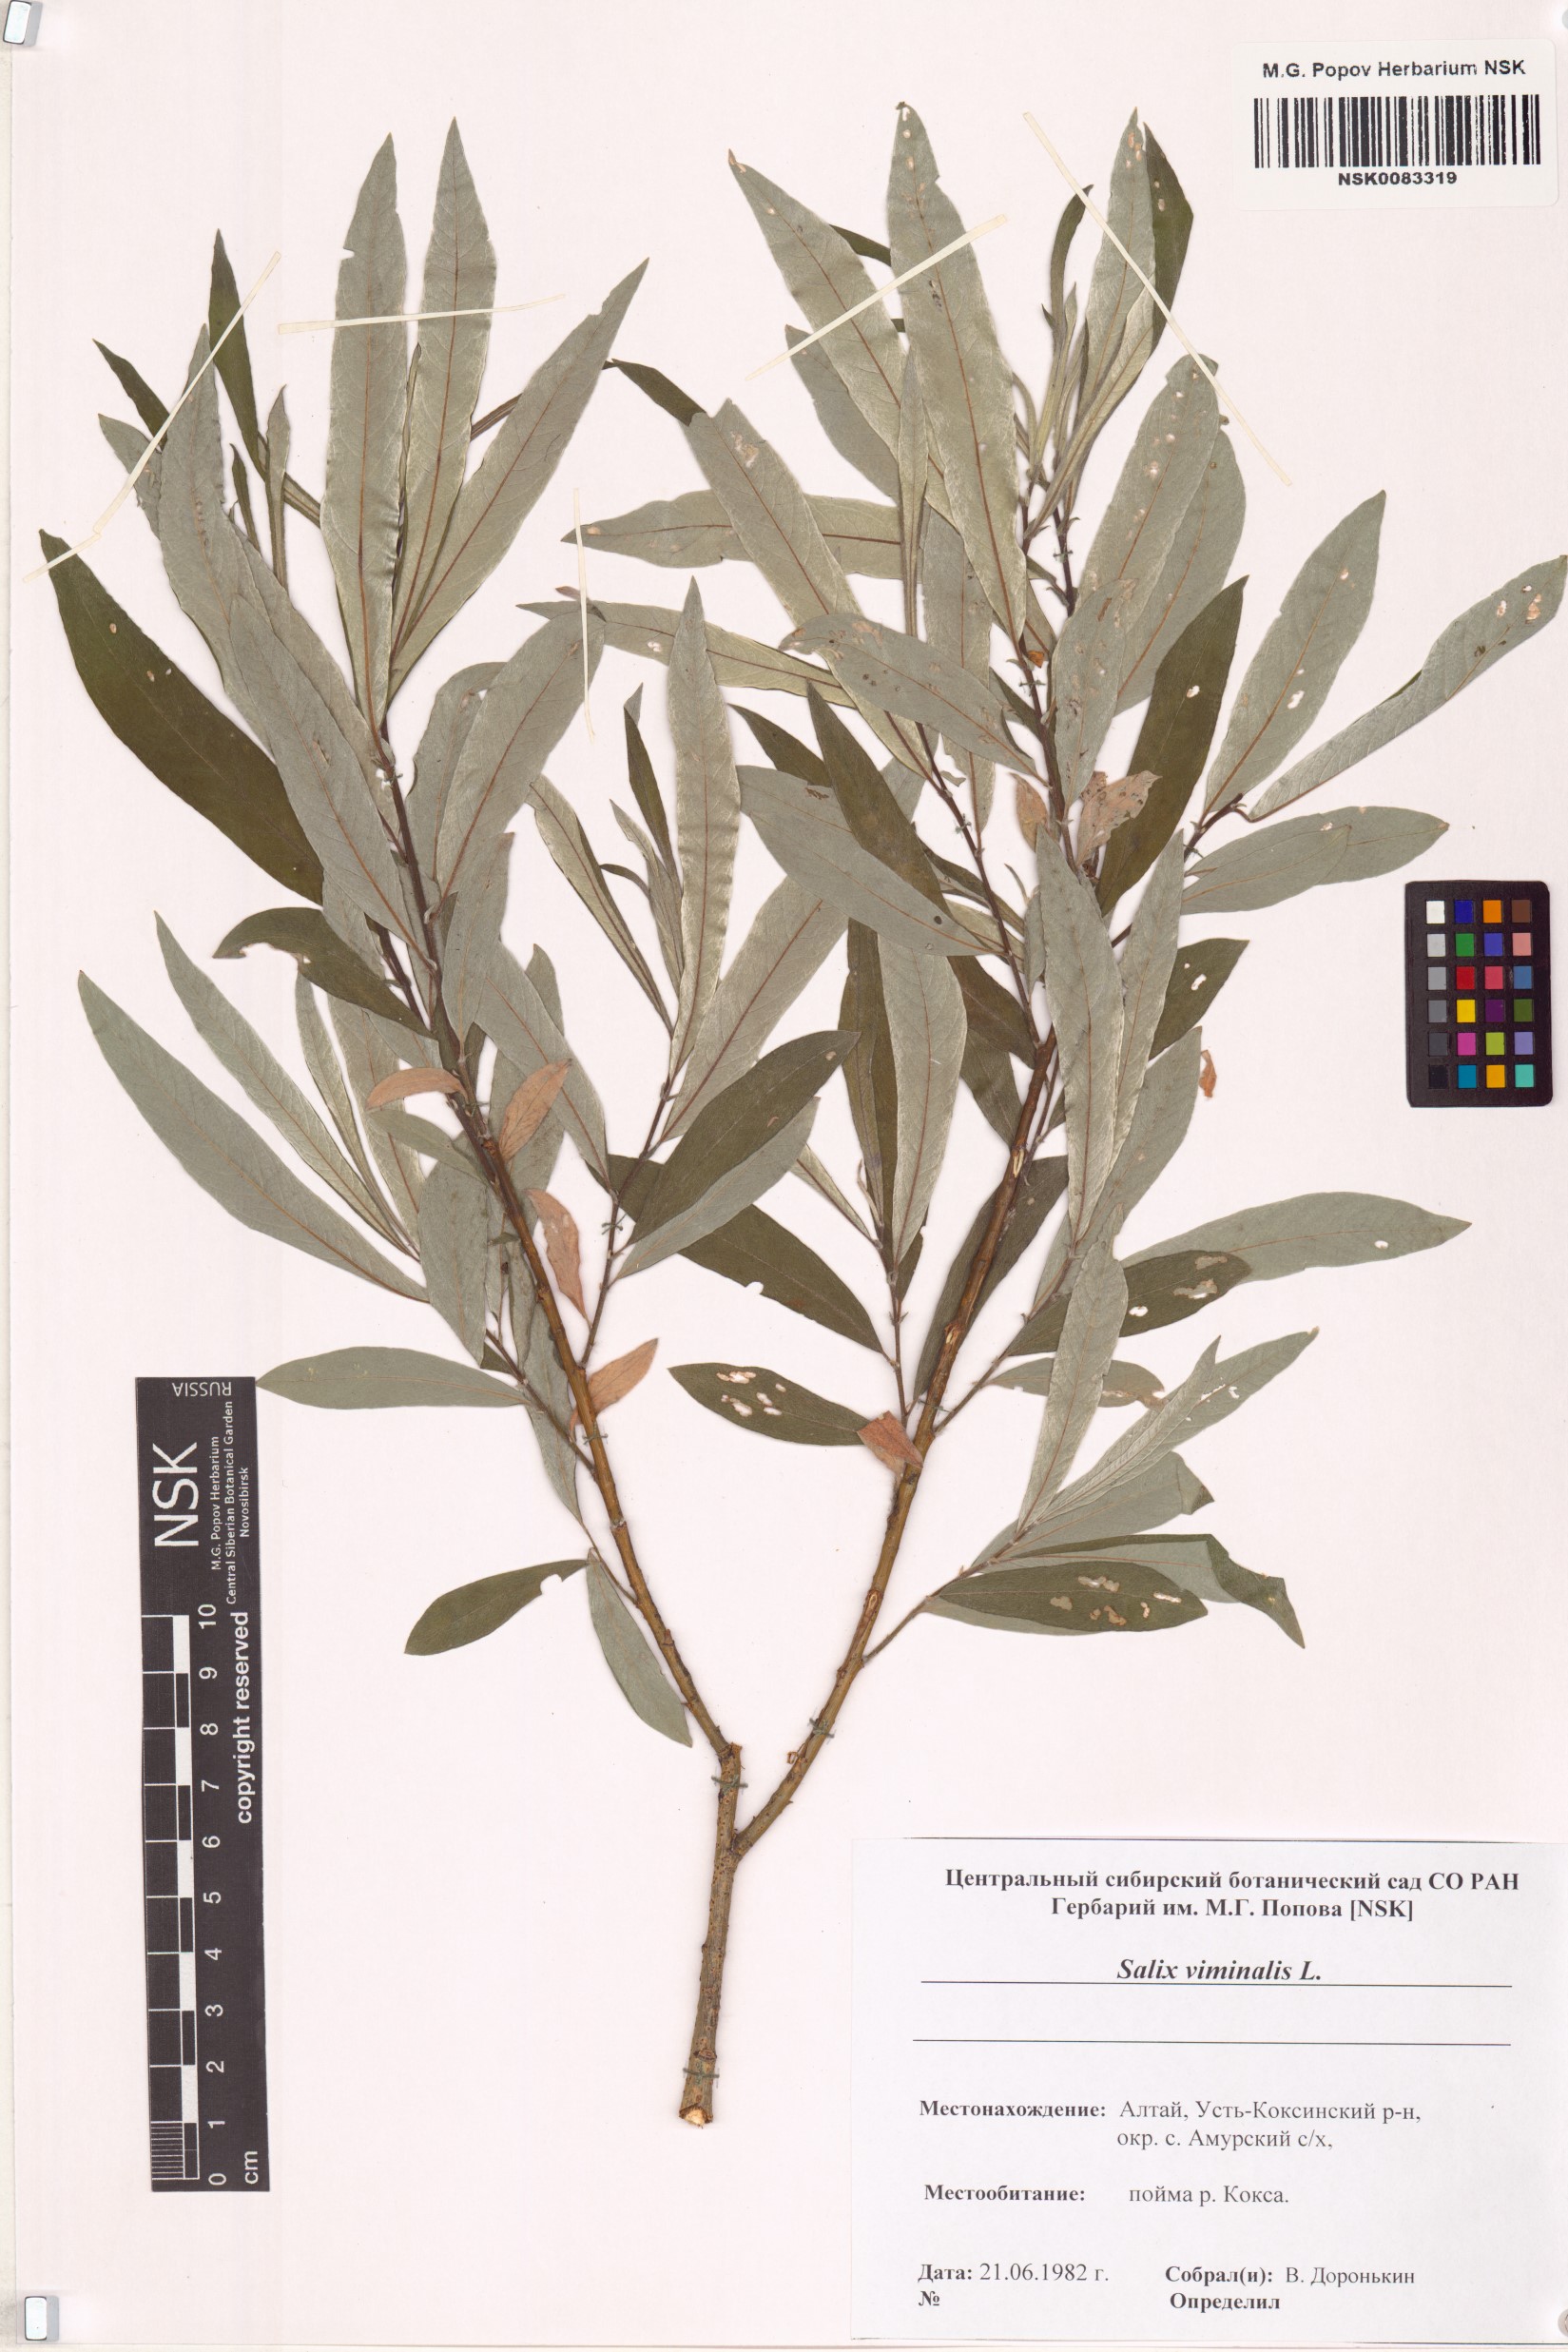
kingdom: Plantae
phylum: Tracheophyta
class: Magnoliopsida
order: Malpighiales
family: Salicaceae
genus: Salix
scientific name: Salix viminalis
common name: Osier
